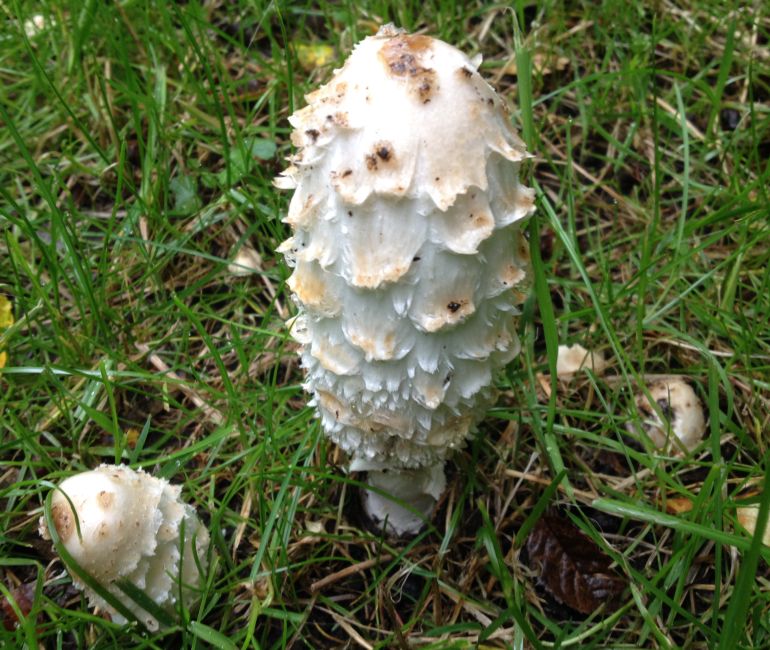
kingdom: Fungi
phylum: Basidiomycota
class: Agaricomycetes
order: Agaricales
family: Agaricaceae
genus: Coprinus
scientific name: Coprinus comatus
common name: stor parykhat
